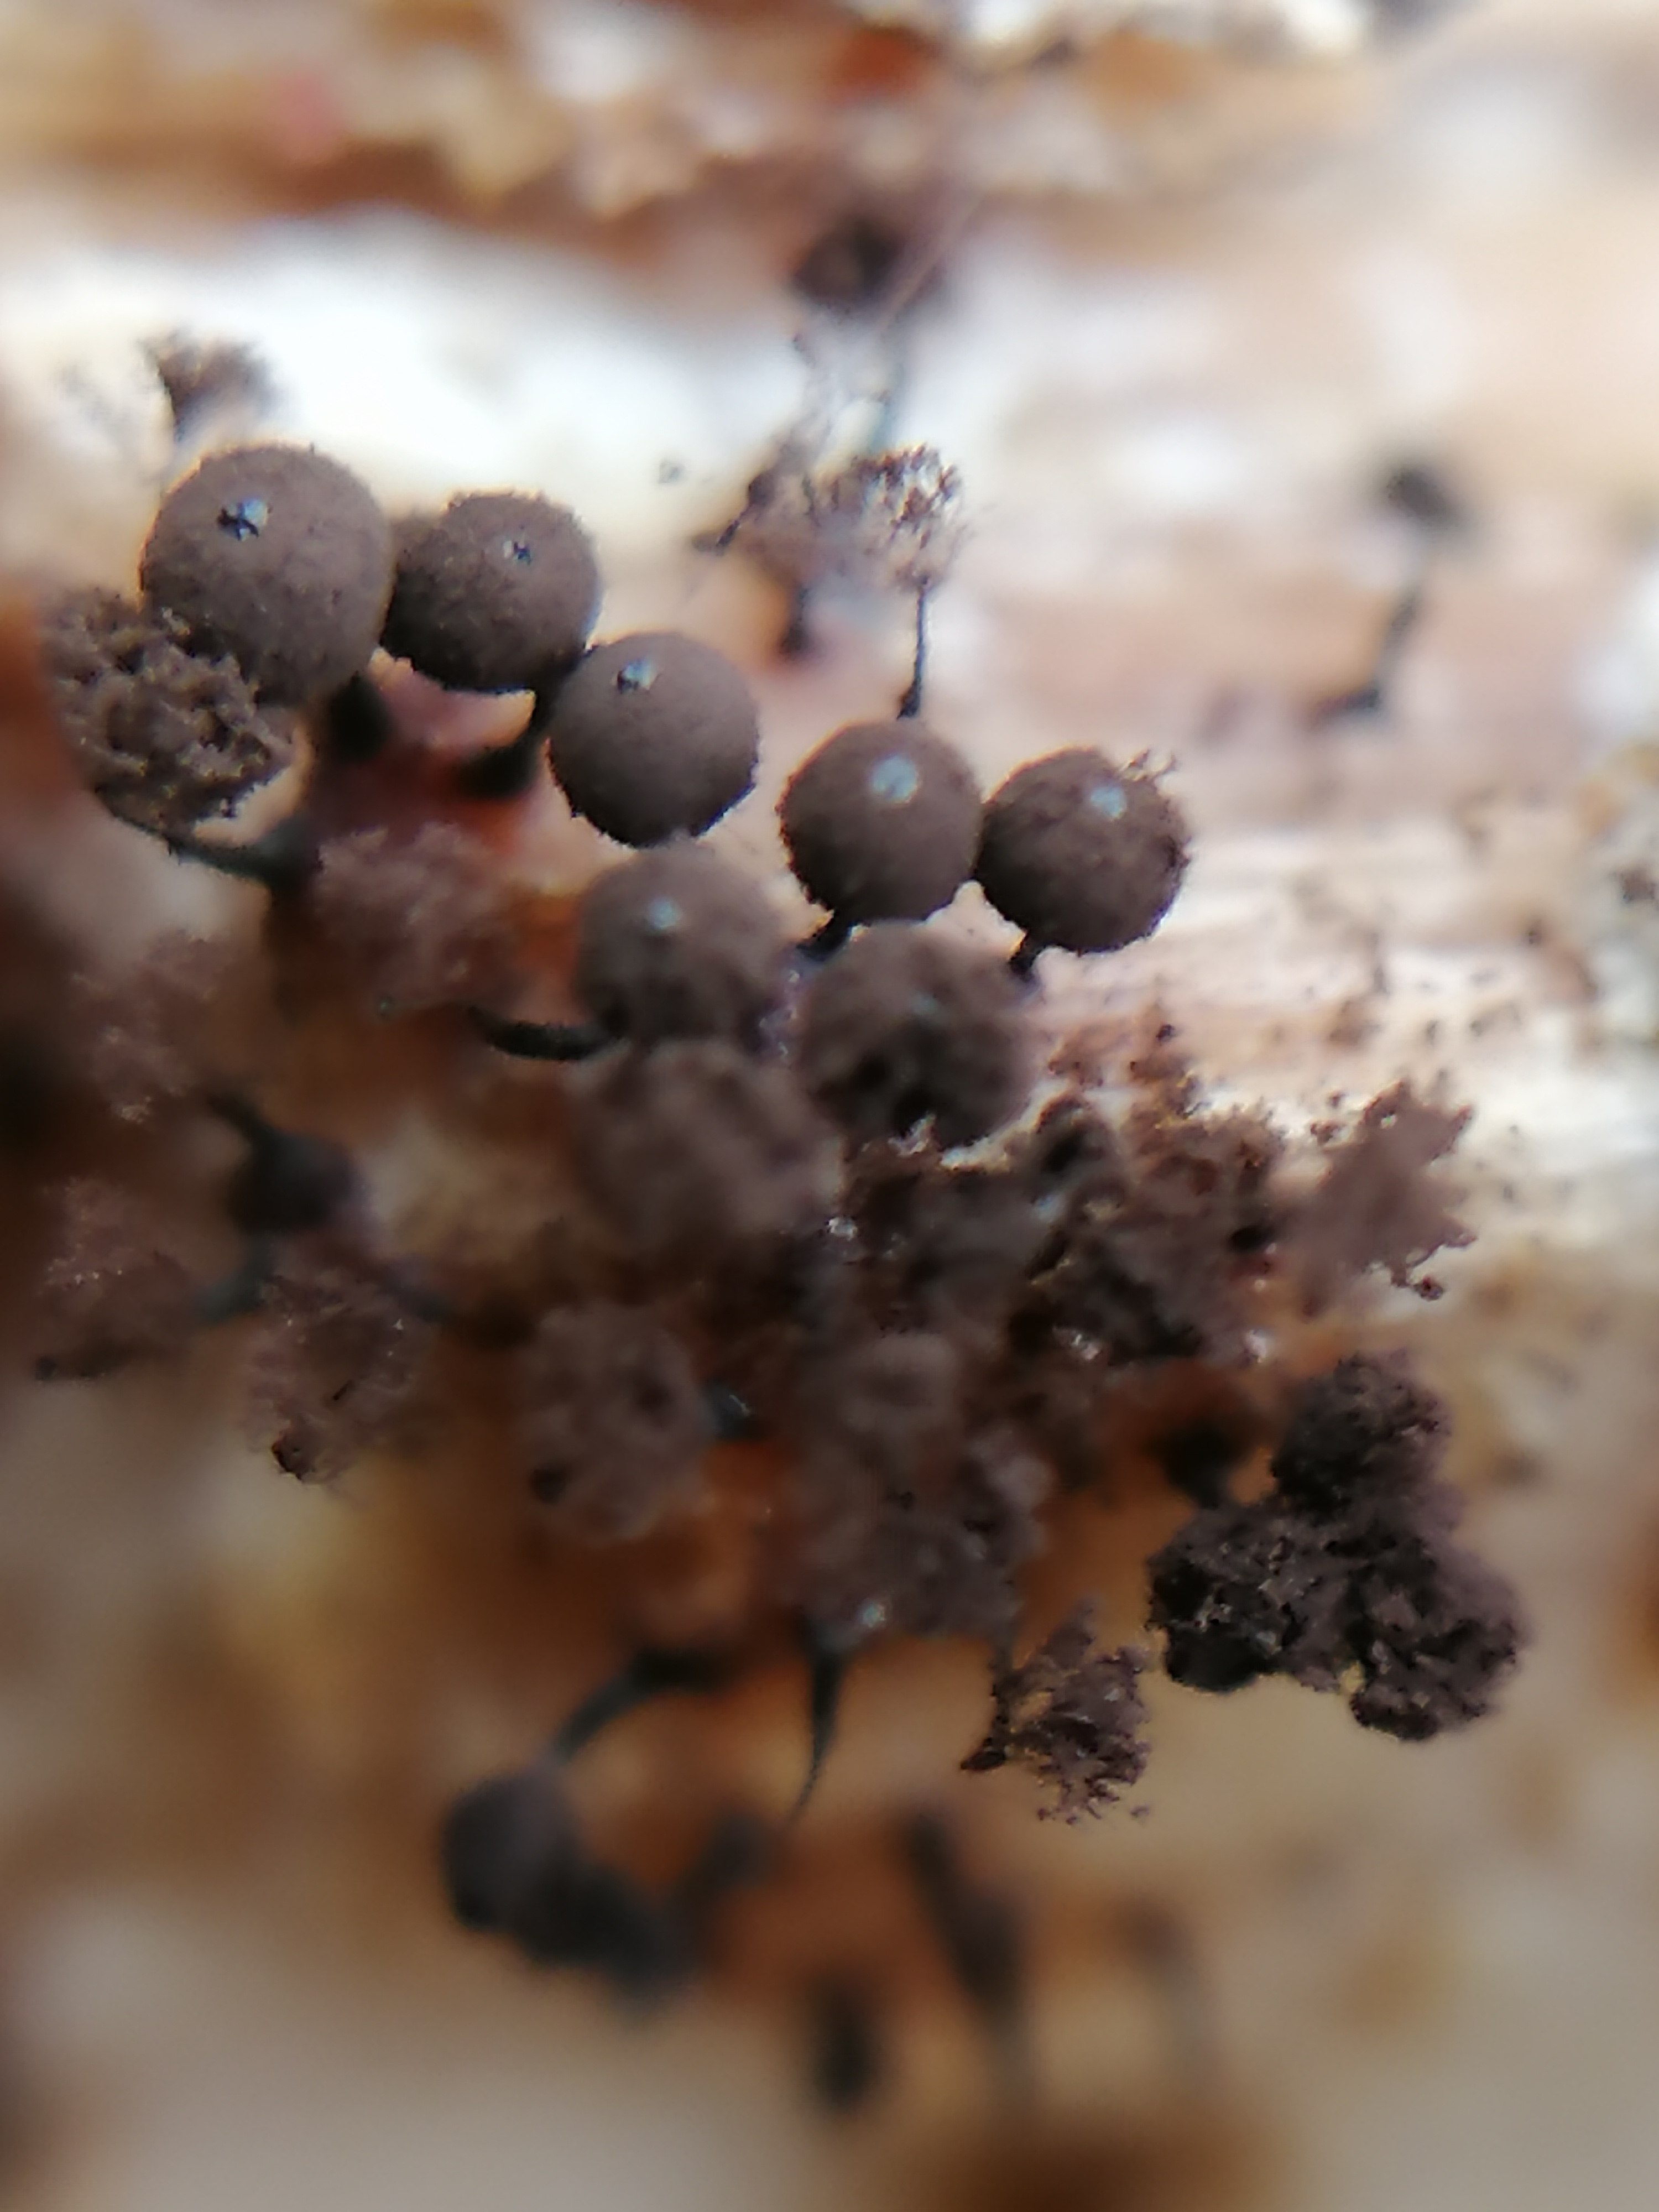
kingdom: Protozoa
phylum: Mycetozoa
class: Myxomycetes
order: Stemonitidales
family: Stemonitidaceae
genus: Enerthenema
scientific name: Enerthenema papillatum
